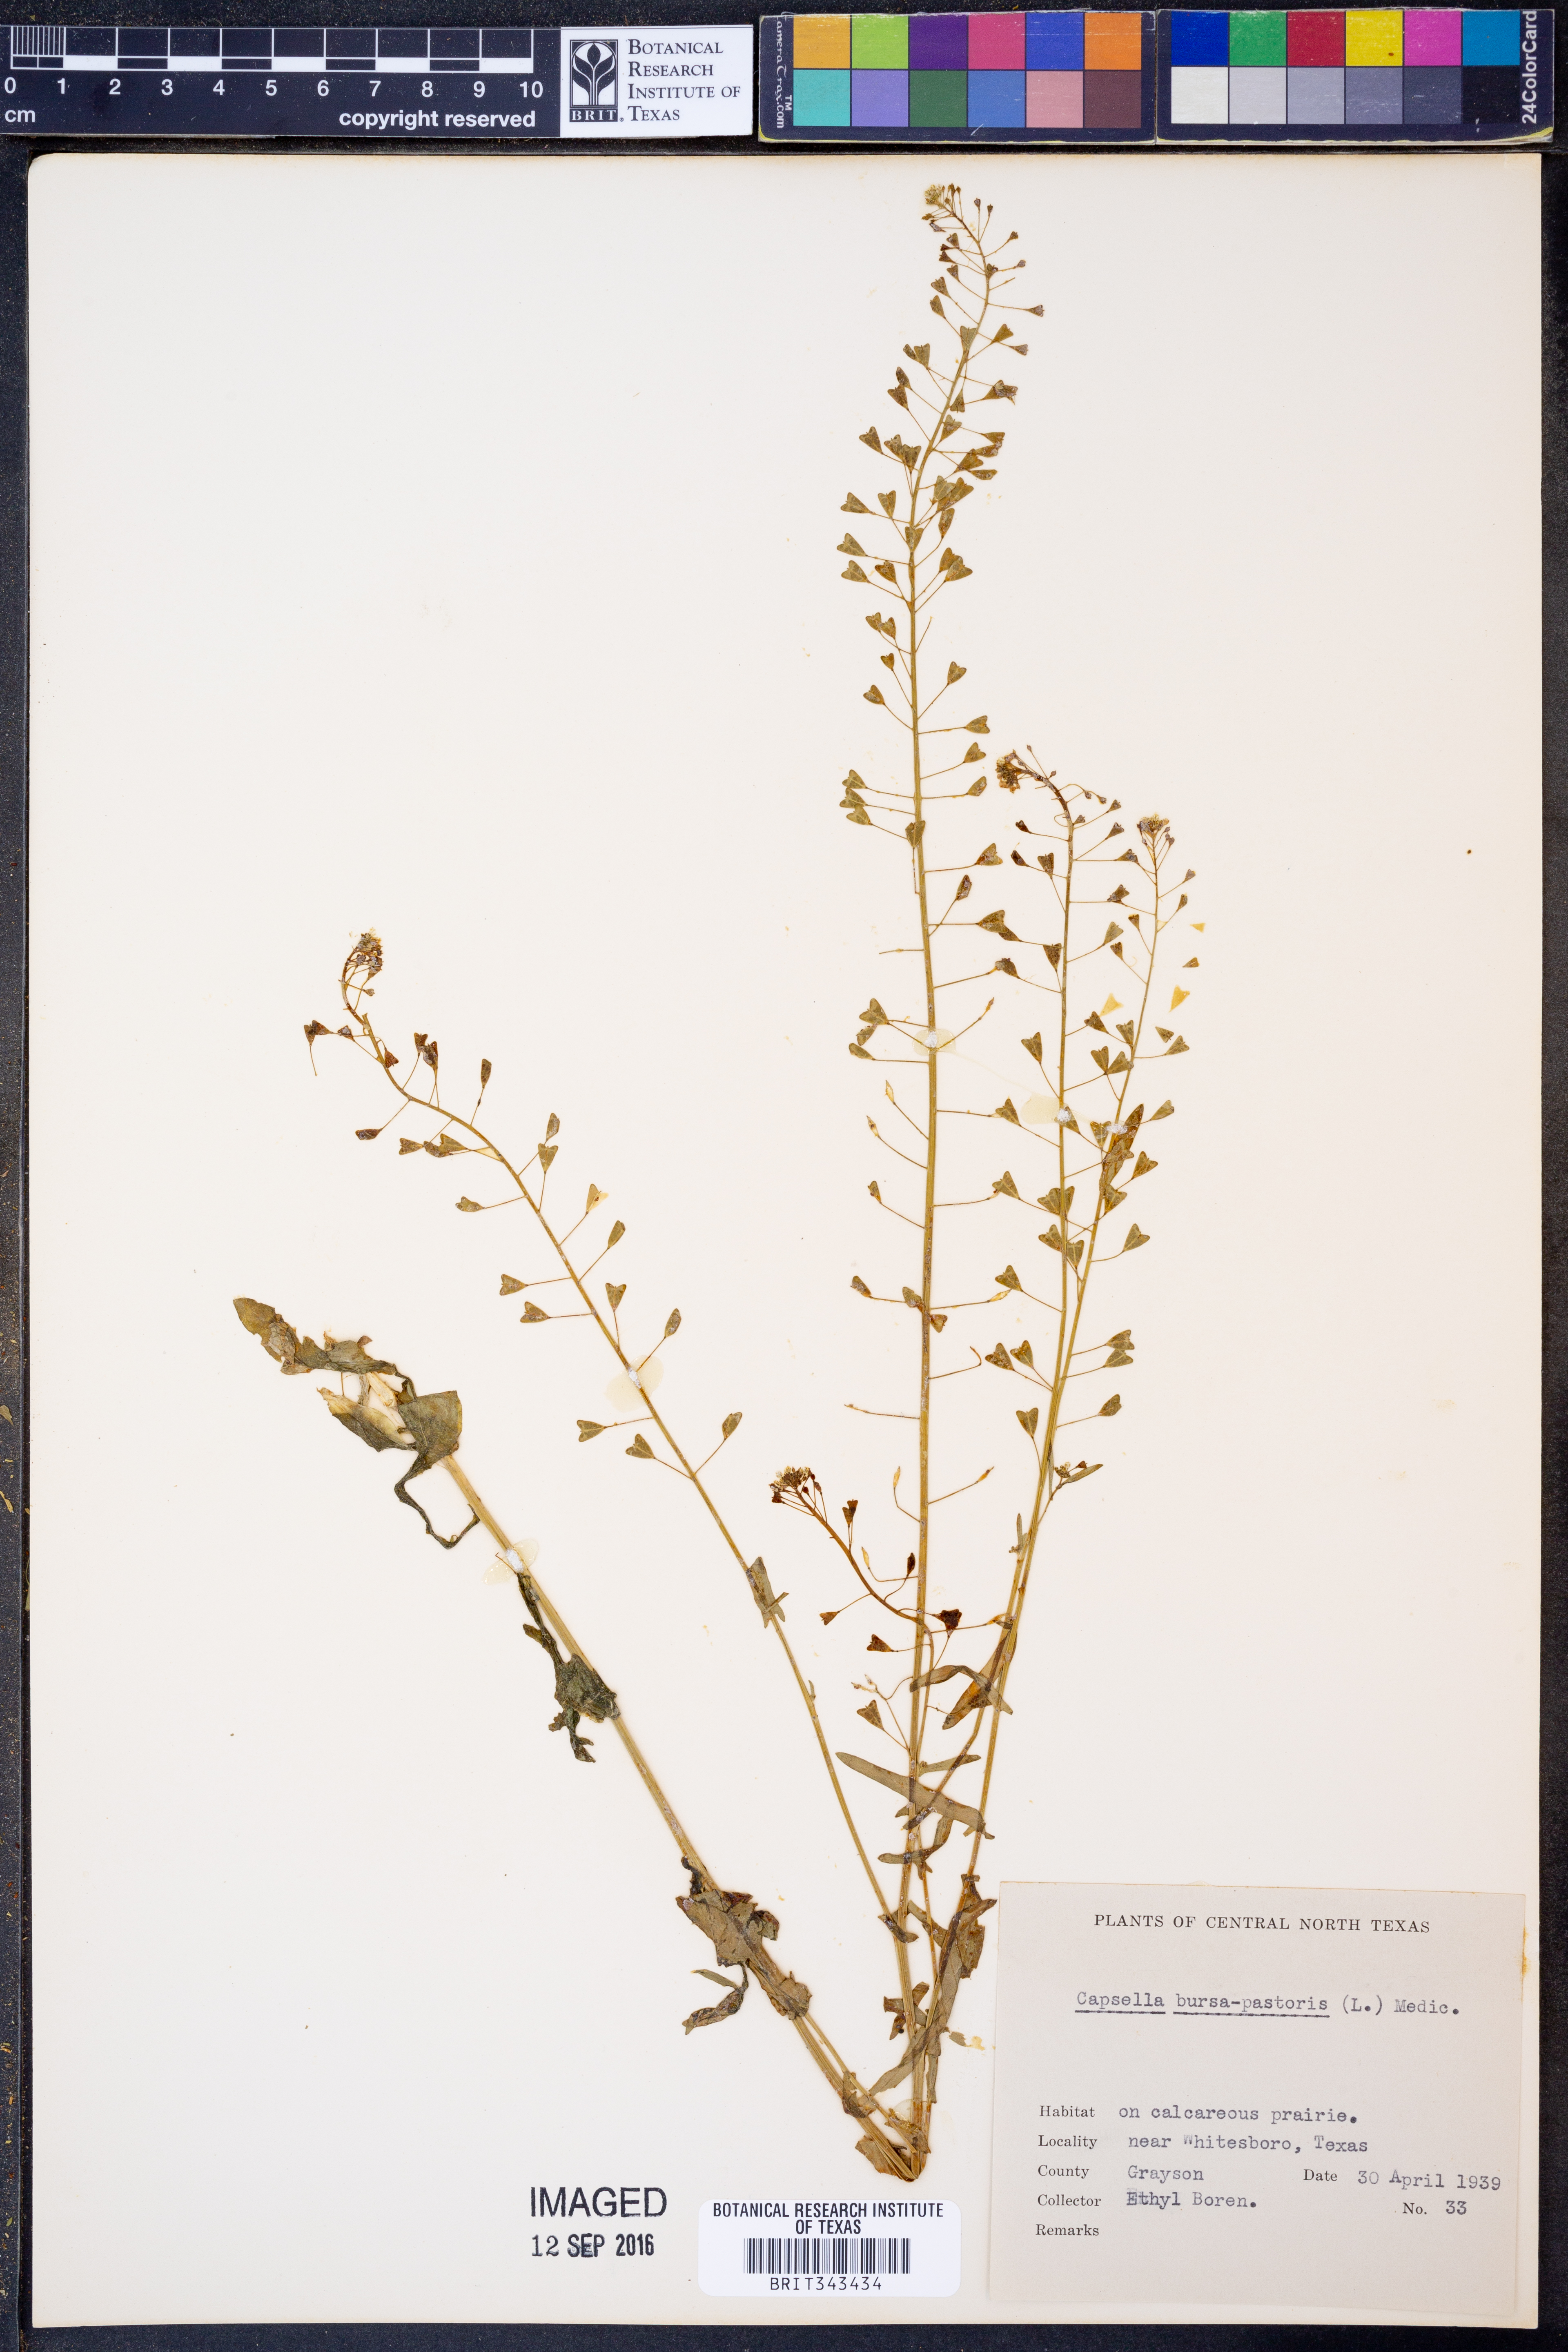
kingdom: Plantae
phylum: Tracheophyta
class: Magnoliopsida
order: Brassicales
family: Brassicaceae
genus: Capsella
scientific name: Capsella bursa-pastoris
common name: Shepherd's purse
